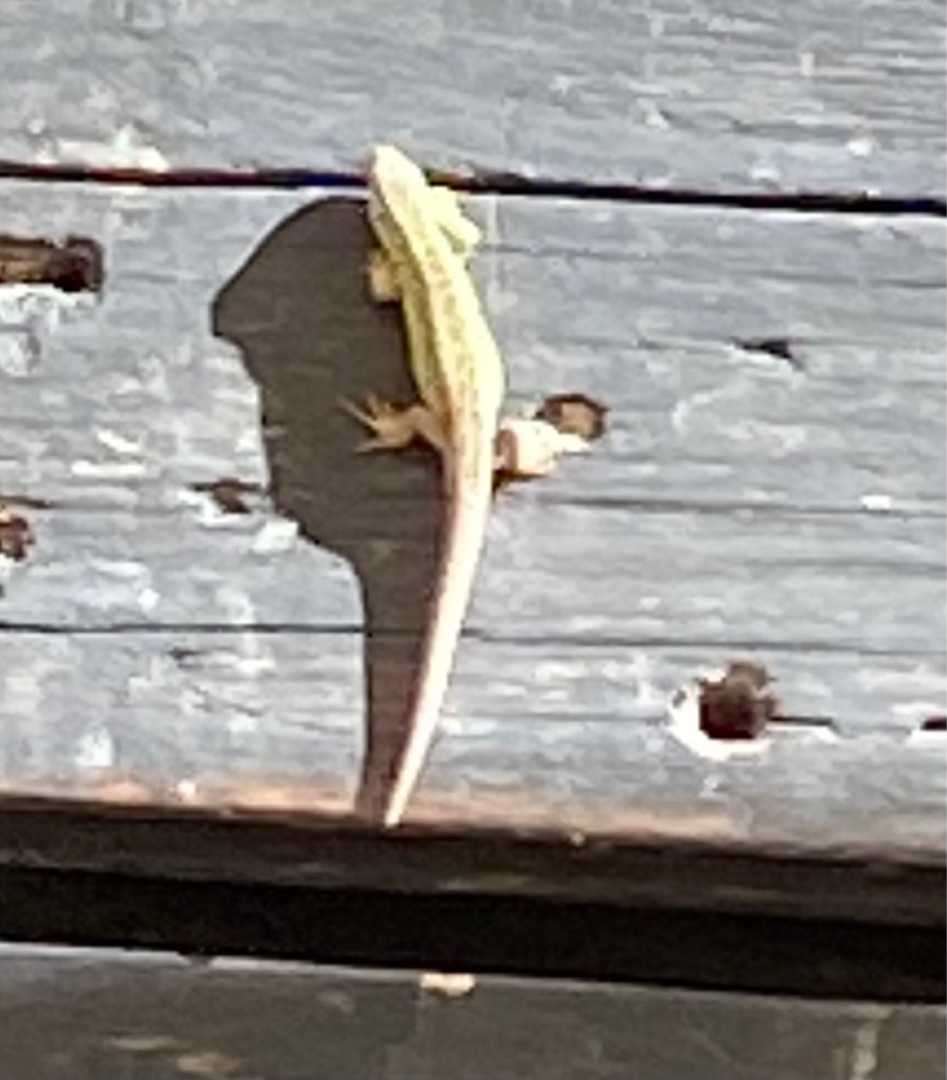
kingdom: Animalia
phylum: Chordata
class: Squamata
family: Lacertidae
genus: Lacerta
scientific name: Lacerta agilis
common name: Markfirben
